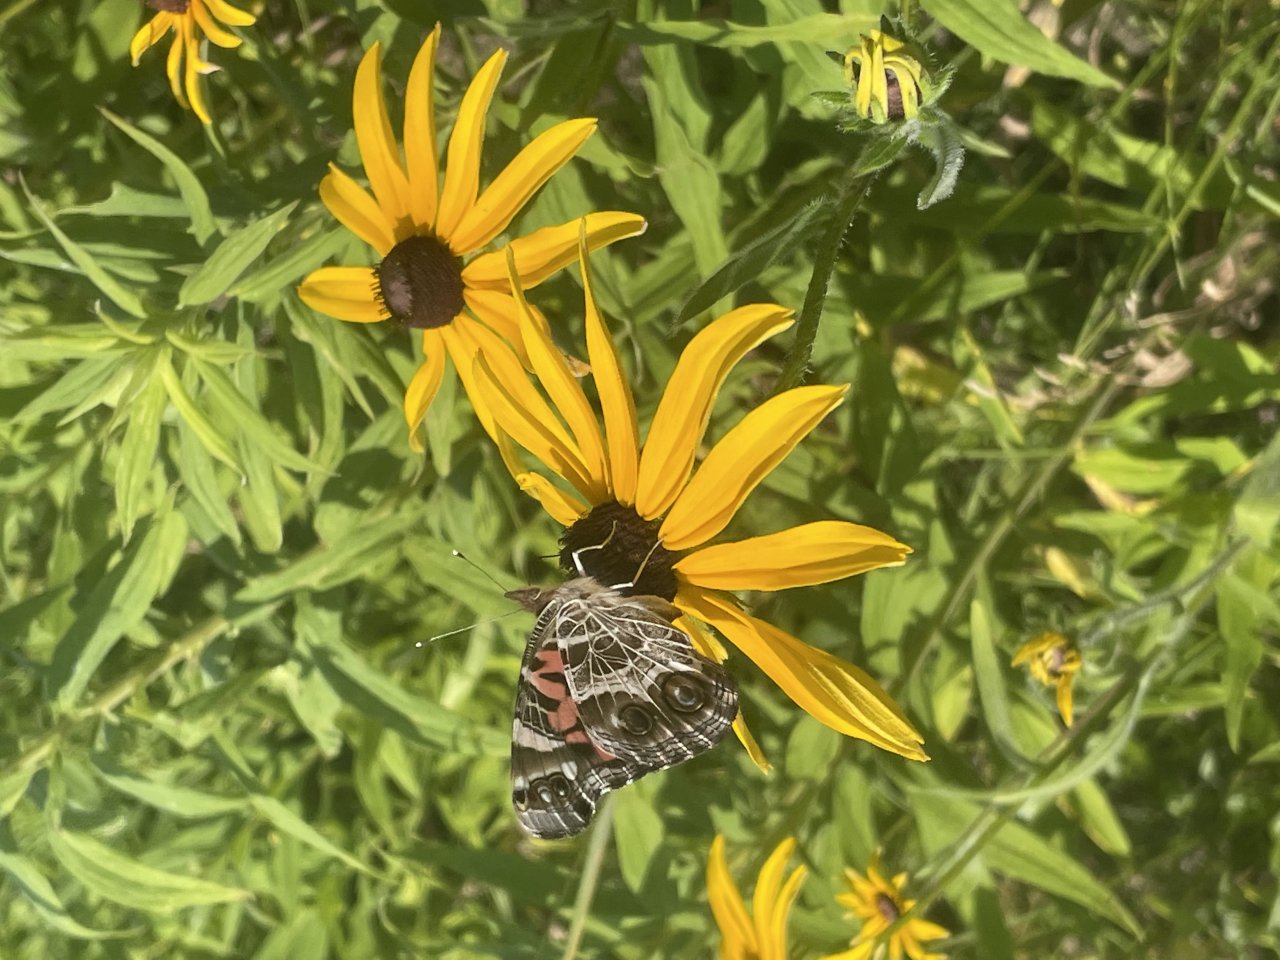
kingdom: Animalia
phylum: Arthropoda
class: Insecta
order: Lepidoptera
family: Nymphalidae
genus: Vanessa
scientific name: Vanessa virginiensis
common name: American Lady
